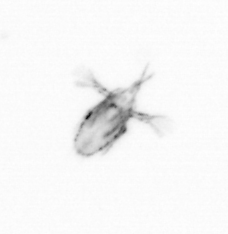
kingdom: Animalia
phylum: Arthropoda
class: Copepoda
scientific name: Copepoda
